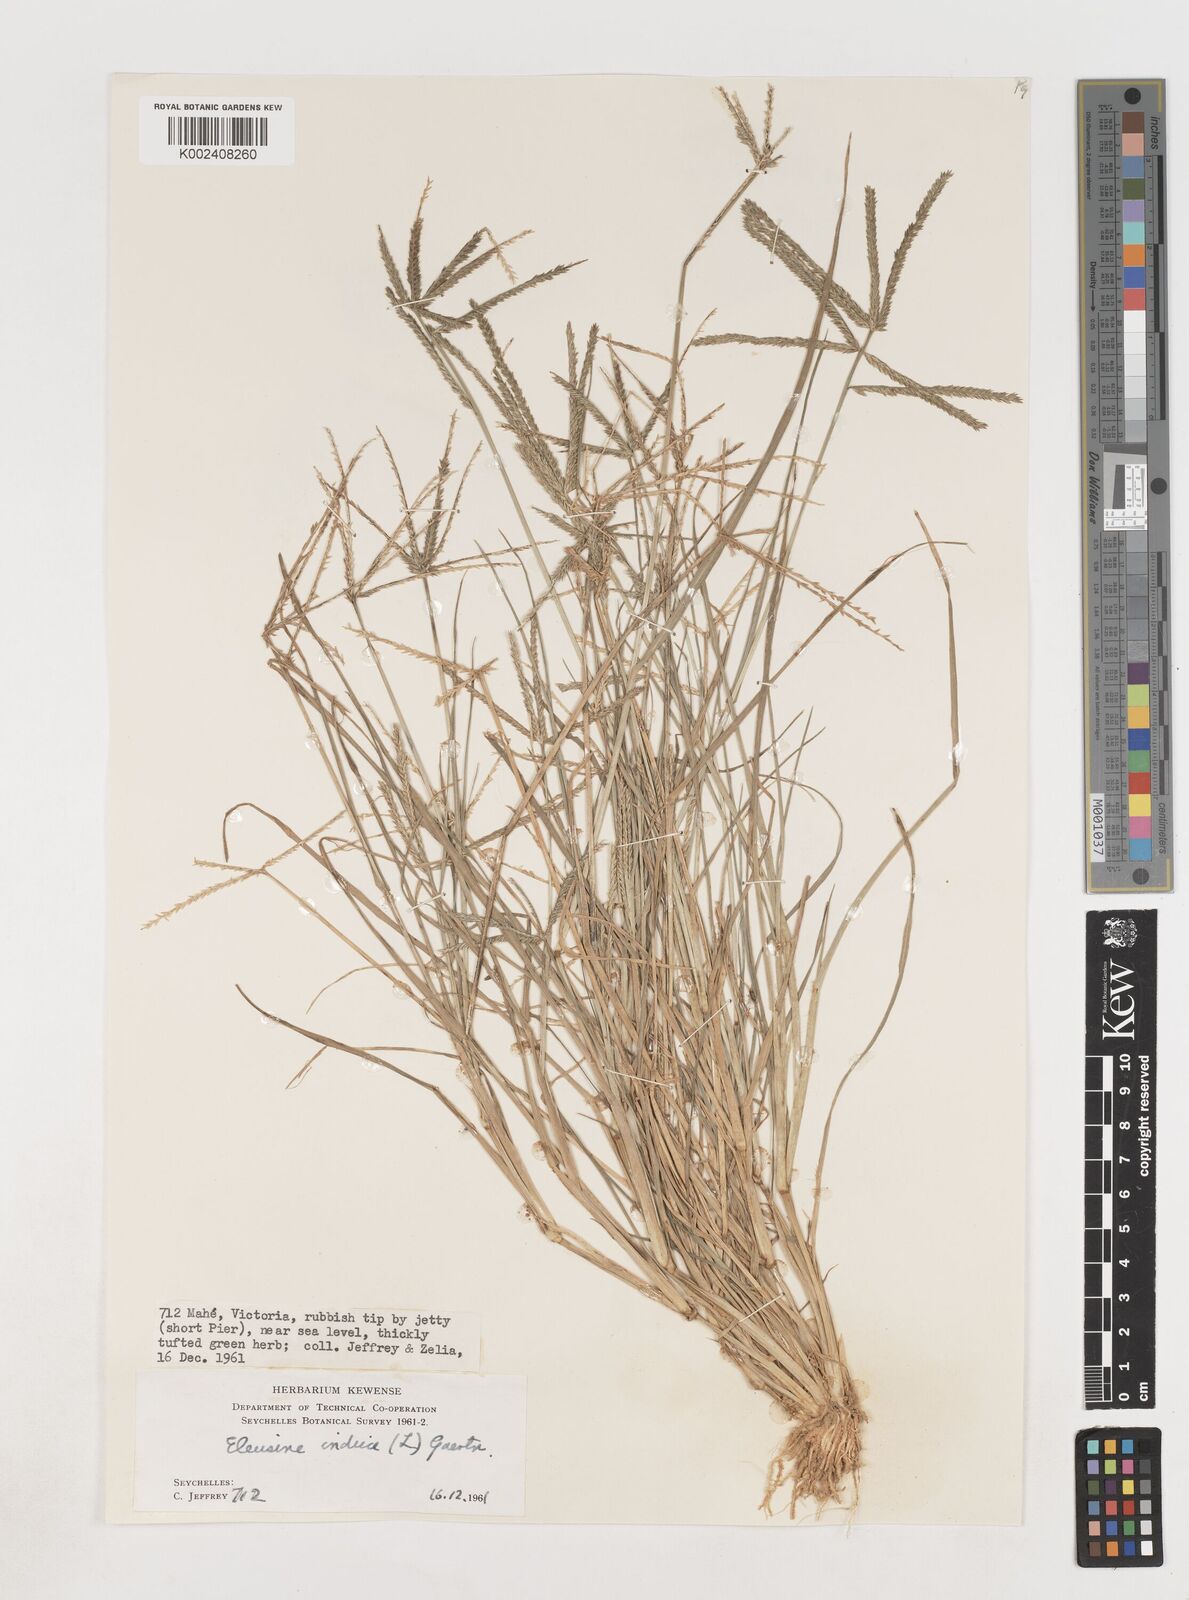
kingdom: Plantae
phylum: Tracheophyta
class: Liliopsida
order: Poales
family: Poaceae
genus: Eleusine
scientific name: Eleusine indica
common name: Yard-grass
